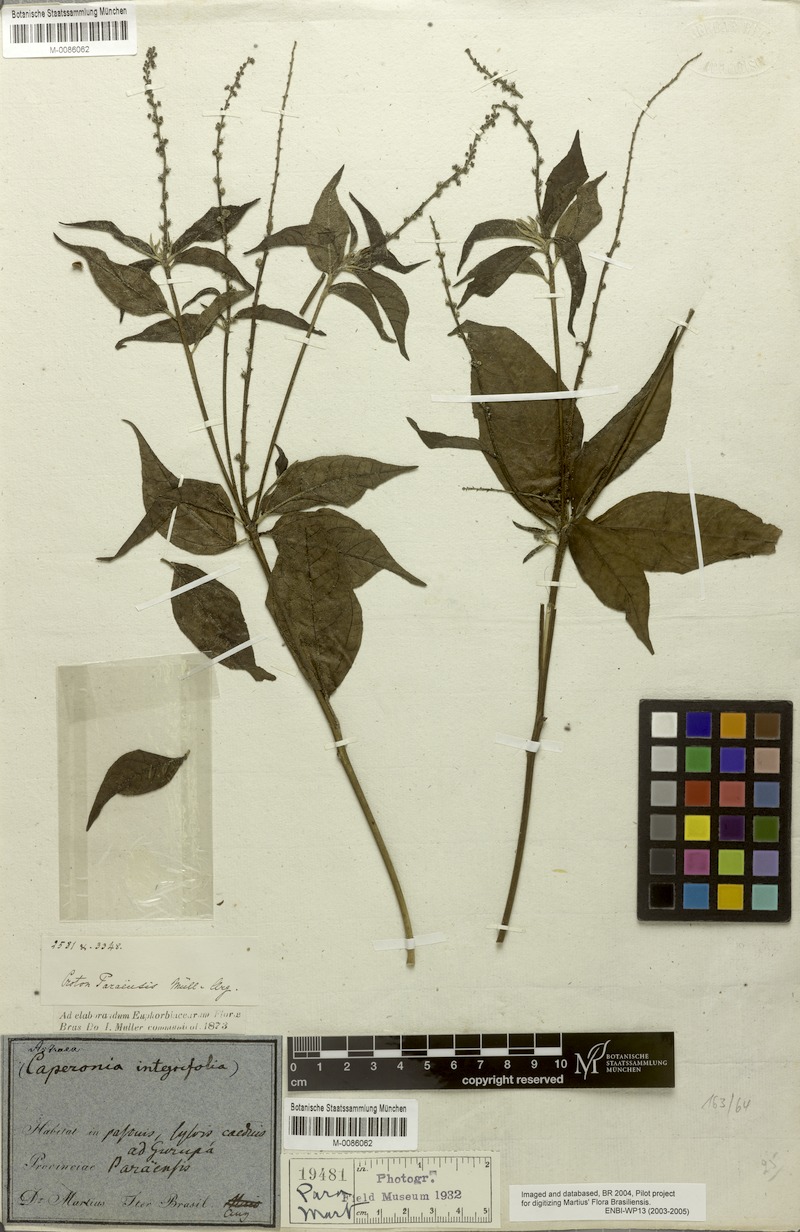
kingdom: Plantae
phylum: Tracheophyta
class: Magnoliopsida
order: Malpighiales
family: Euphorbiaceae
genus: Croton
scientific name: Croton paraensis
